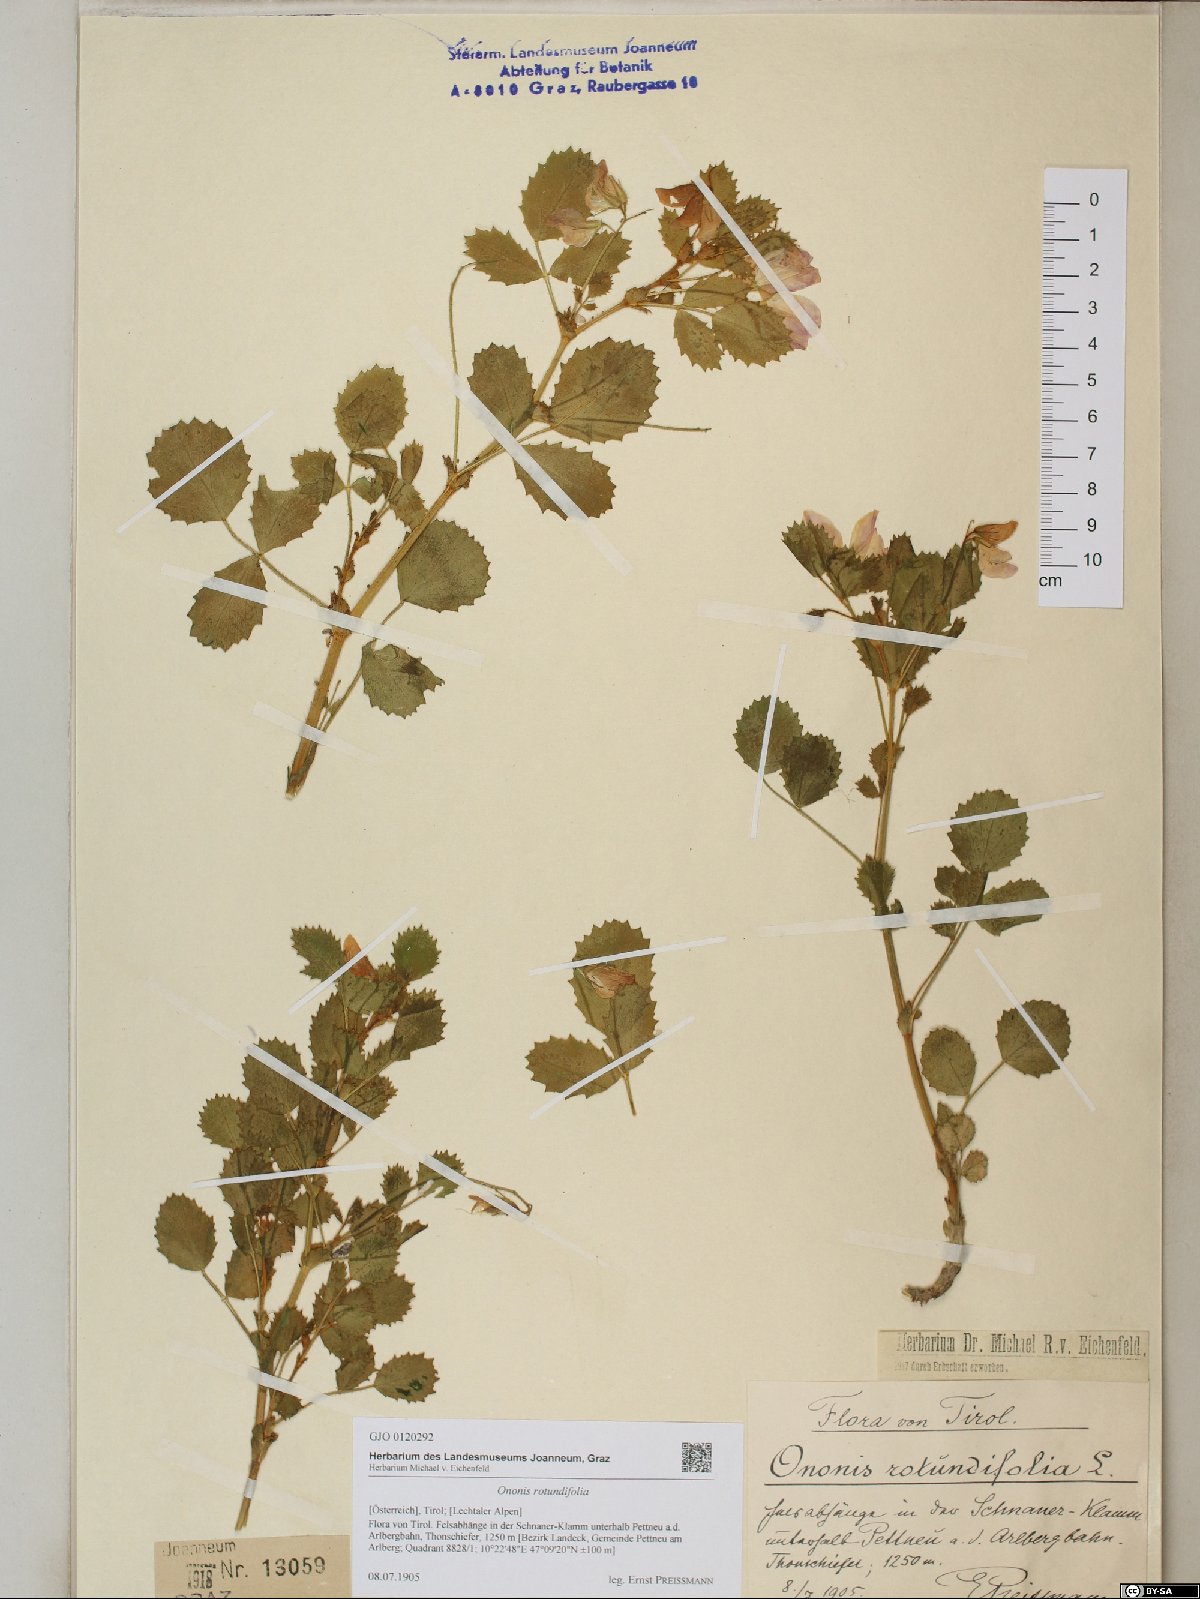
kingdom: Plantae
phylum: Tracheophyta
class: Magnoliopsida
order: Fabales
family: Fabaceae
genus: Ononis
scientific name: Ononis rotundifolia
